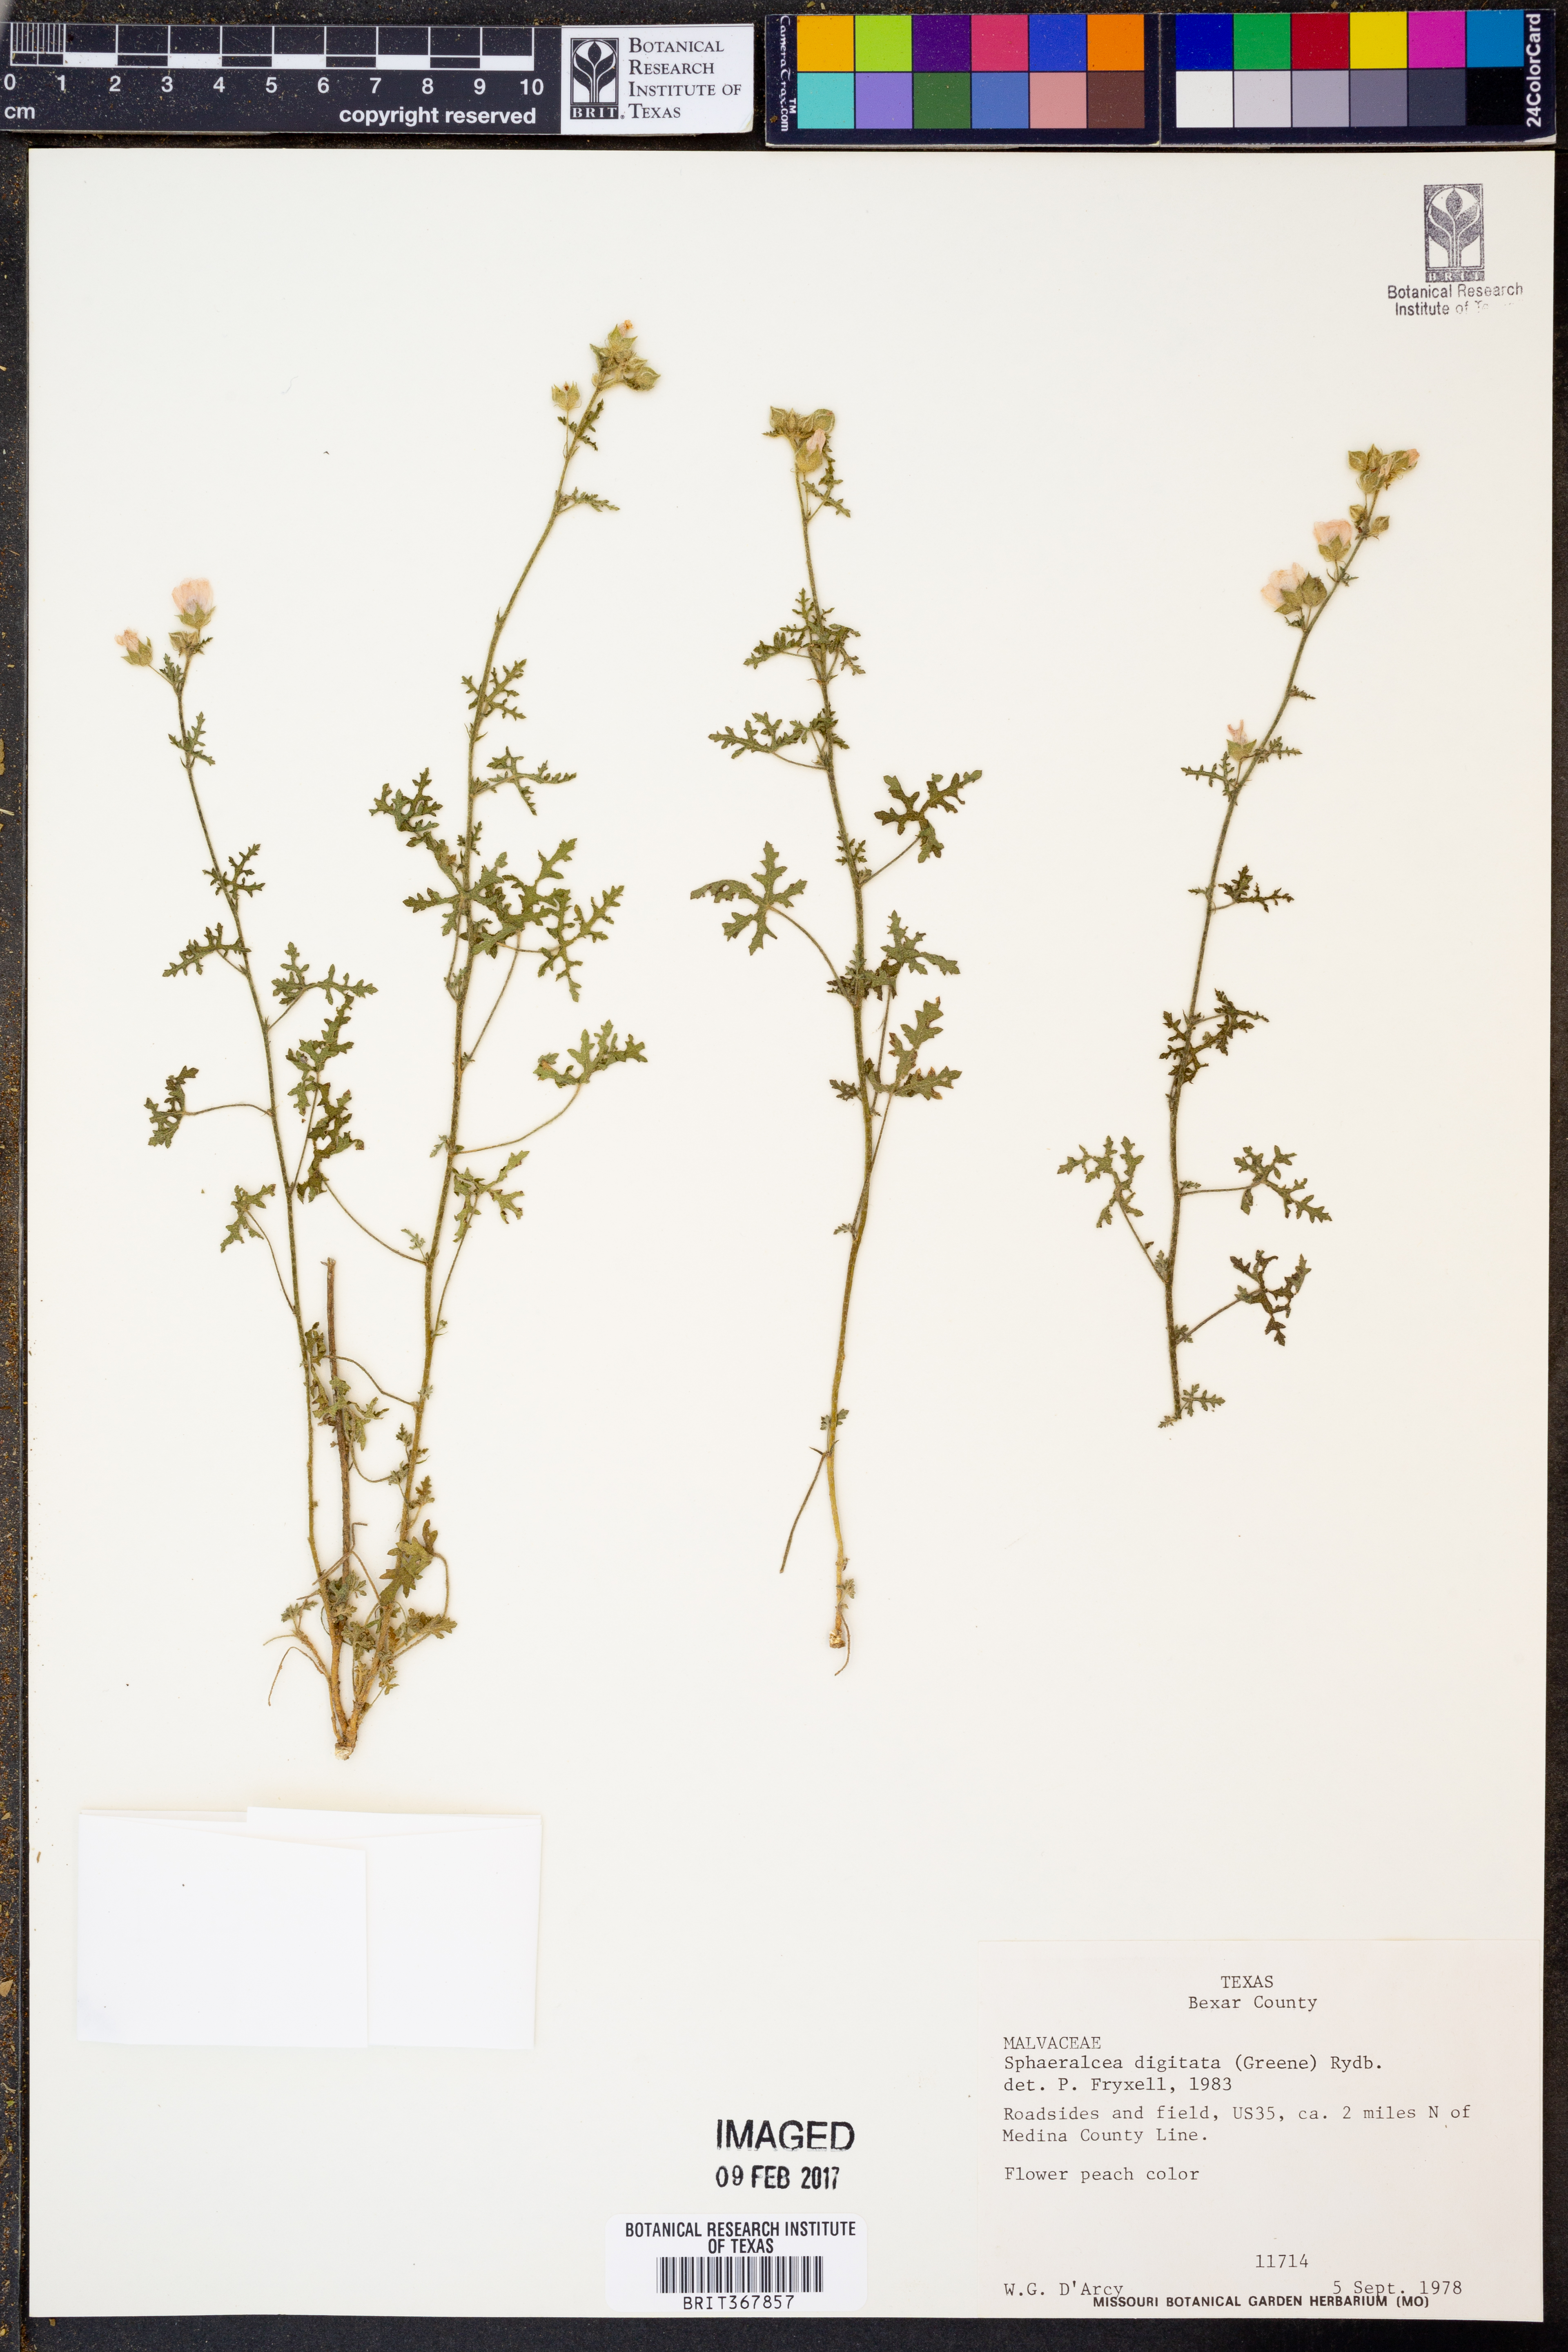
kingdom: Plantae
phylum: Tracheophyta
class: Magnoliopsida
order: Malvales
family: Malvaceae
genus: Sphaeralcea
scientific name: Sphaeralcea digitata
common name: Juniper-gobe-mallow
